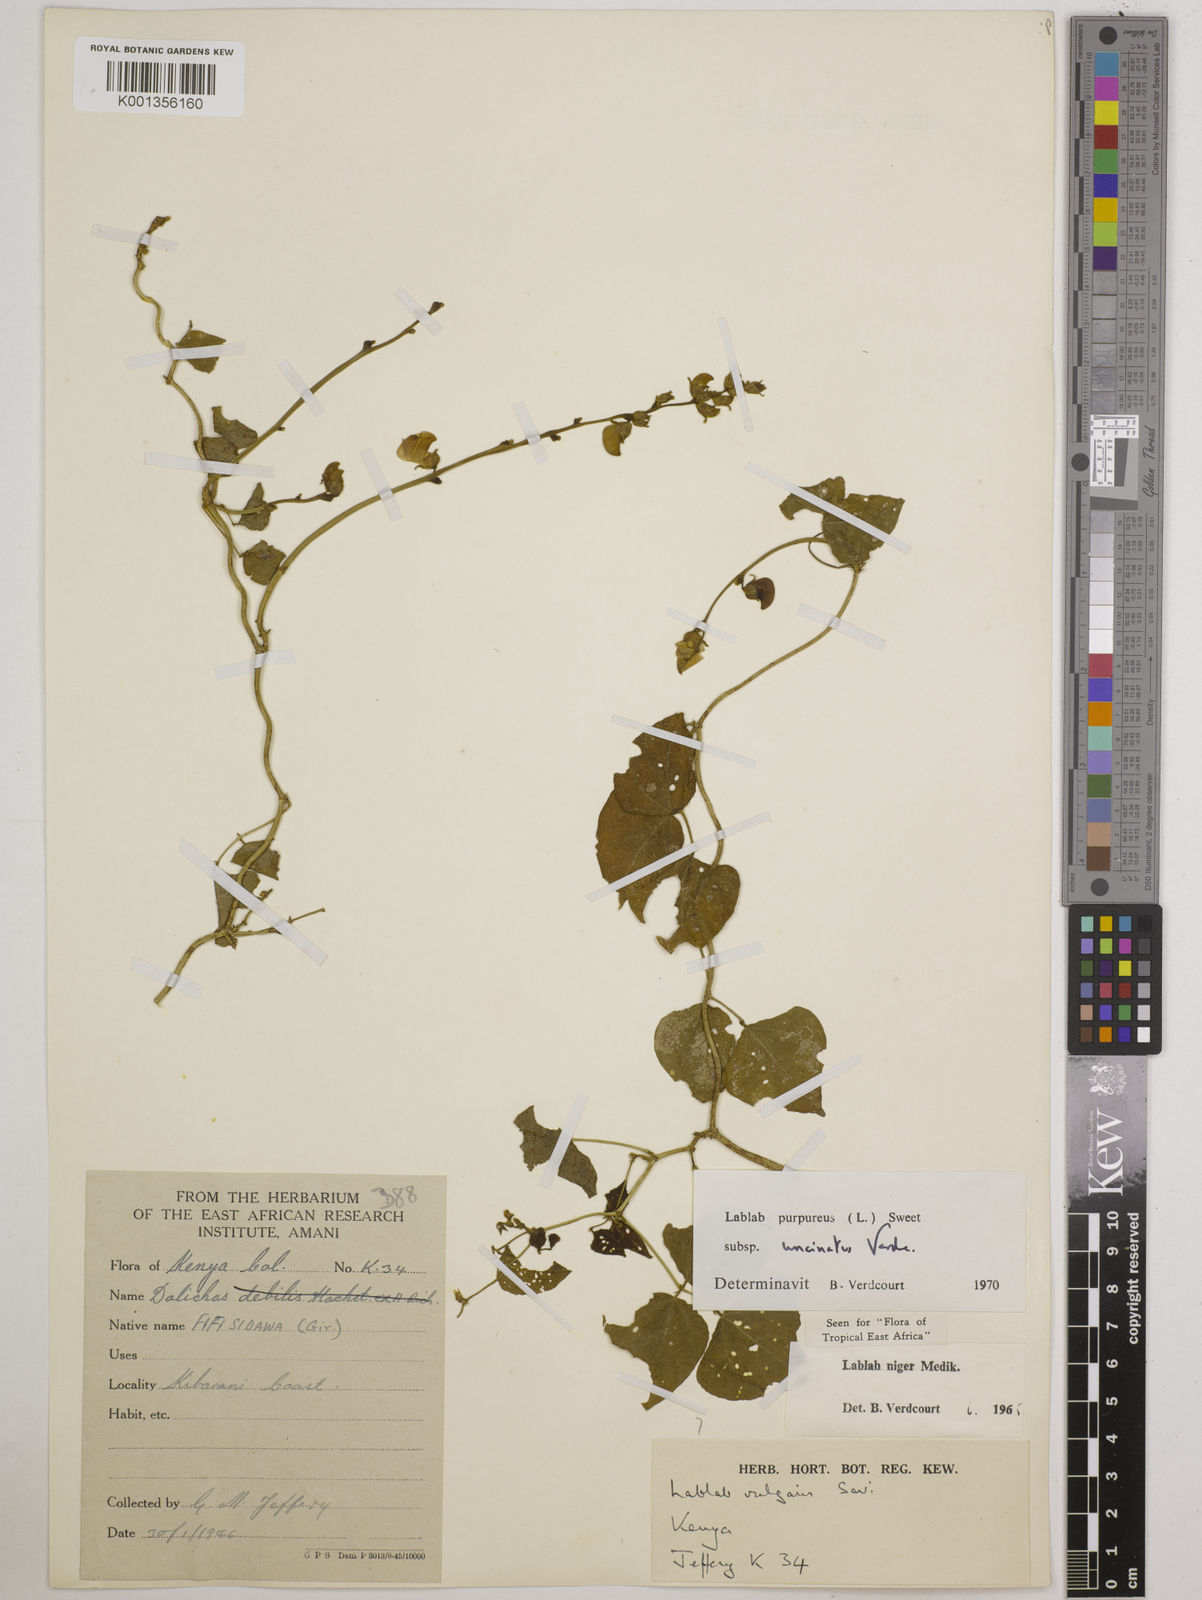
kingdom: Plantae
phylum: Tracheophyta
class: Magnoliopsida
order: Fabales
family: Fabaceae
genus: Lablab
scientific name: Lablab purpureus
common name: Lablab-bean
